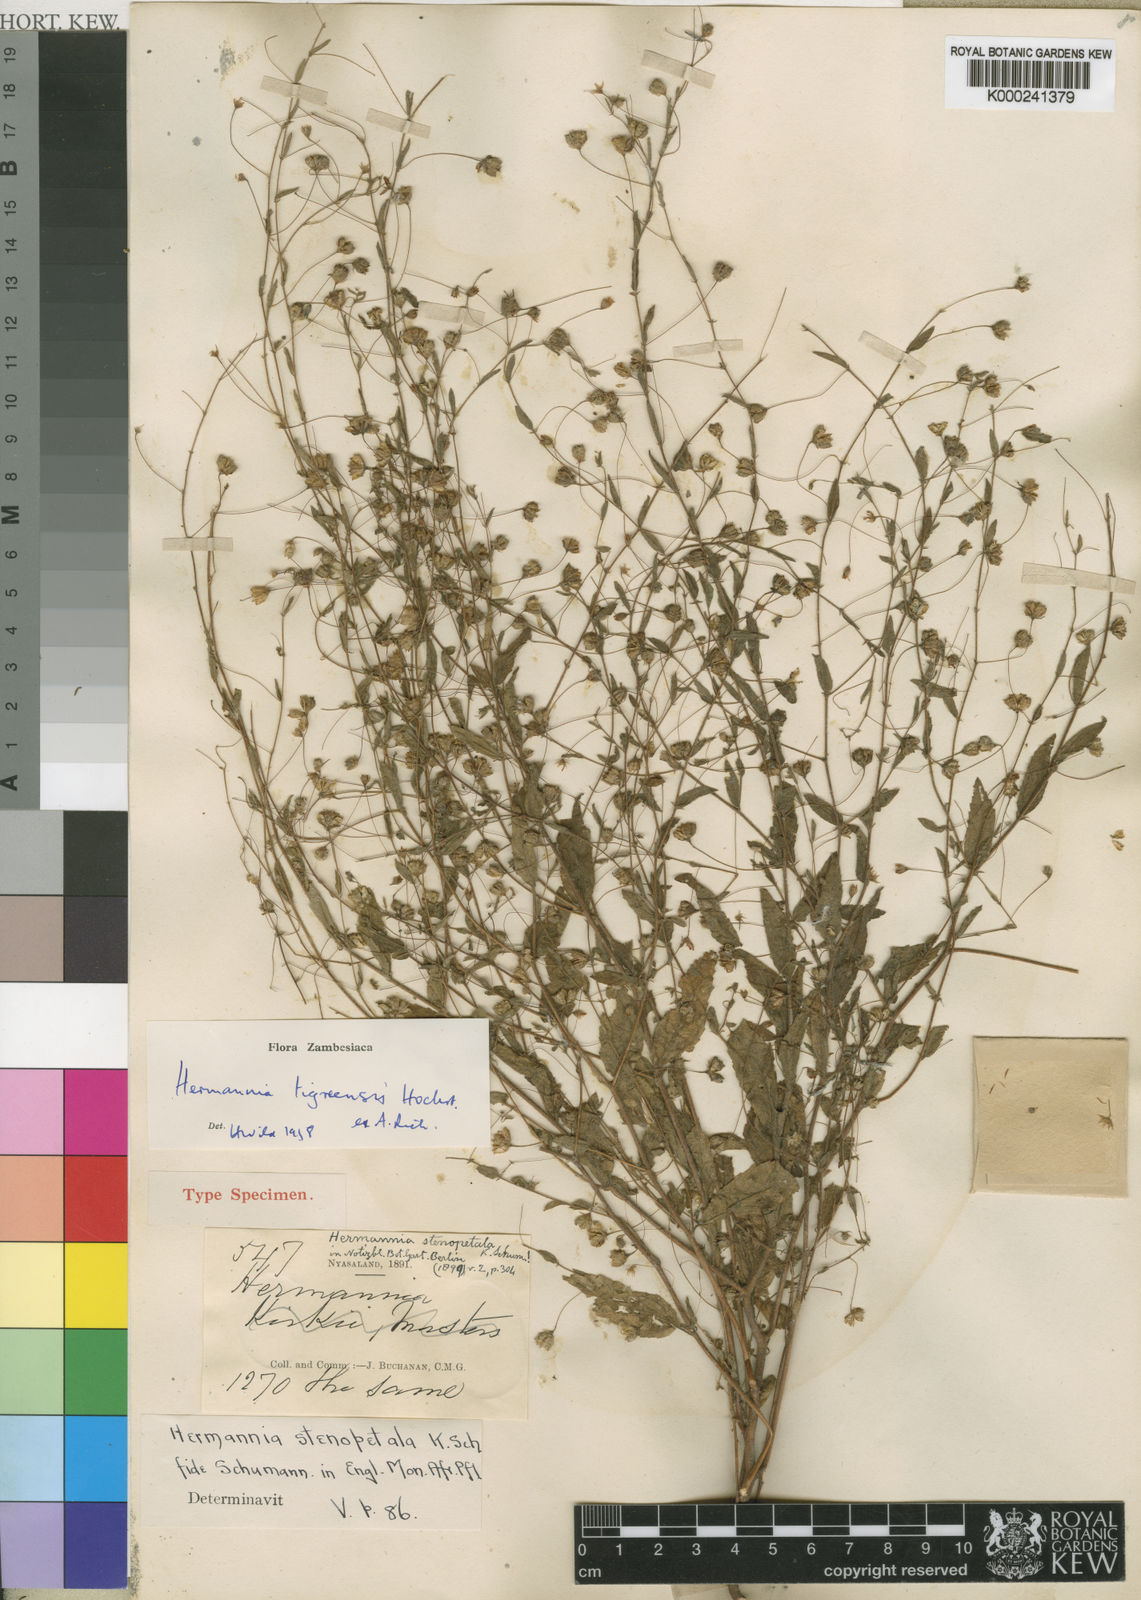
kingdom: Plantae
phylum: Tracheophyta
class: Magnoliopsida
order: Malvales
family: Malvaceae
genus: Hermannia
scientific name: Hermannia tigreensis
